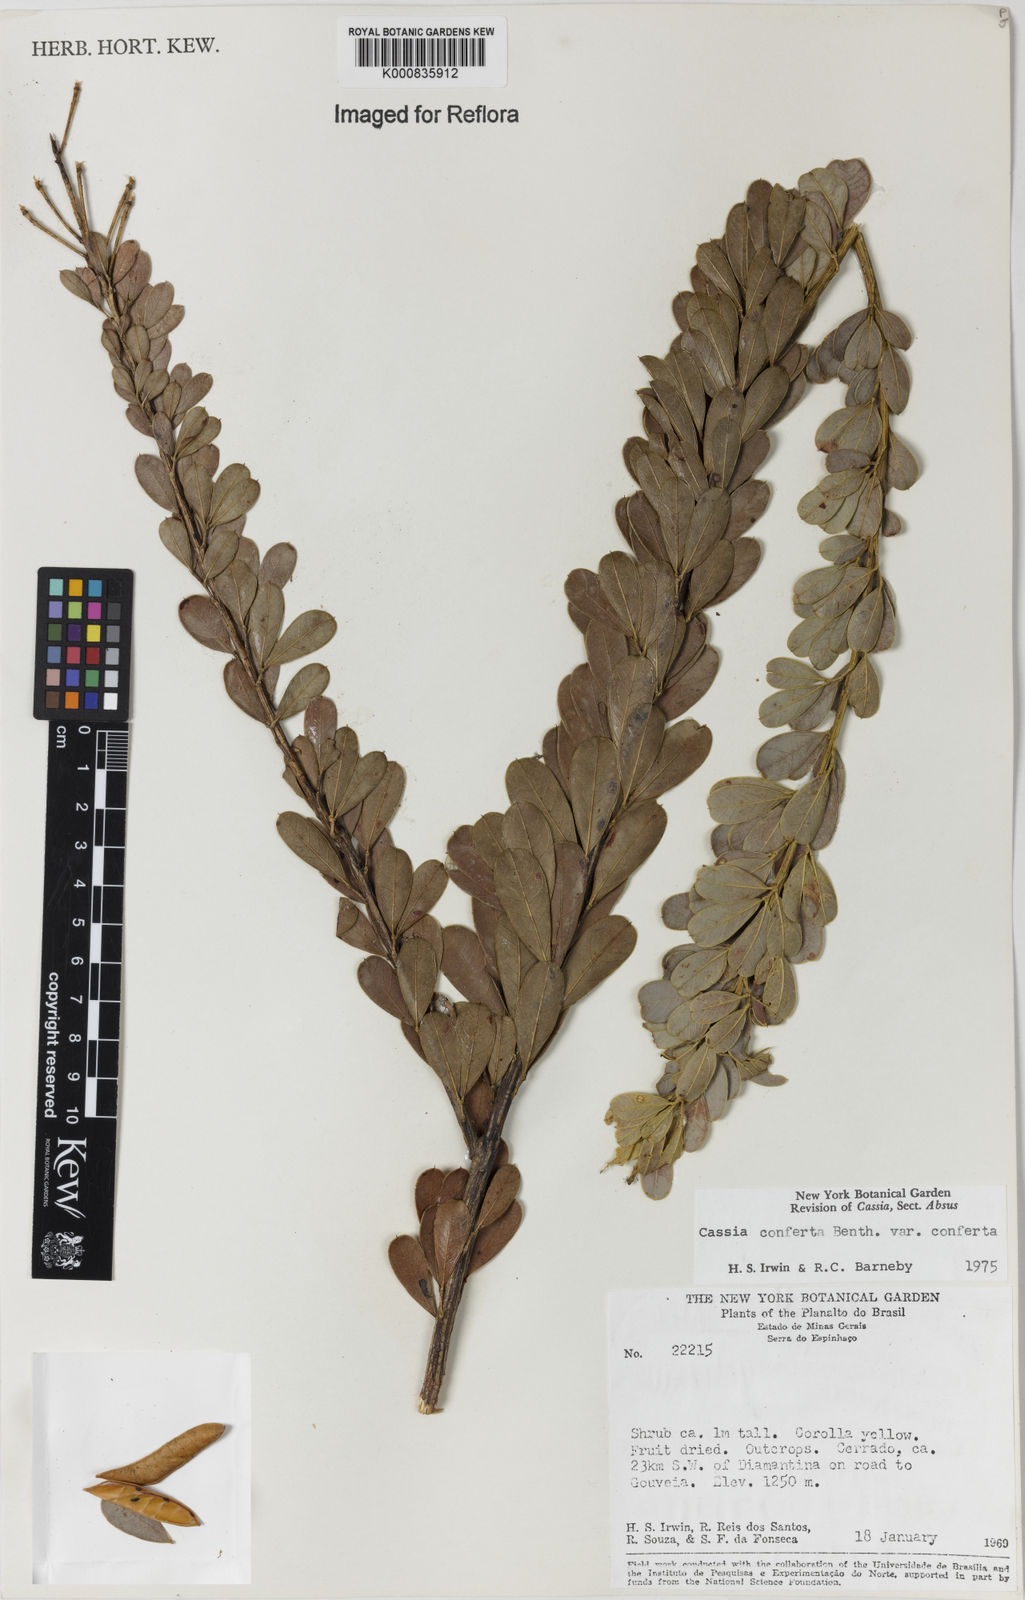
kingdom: Plantae
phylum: Tracheophyta
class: Magnoliopsida
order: Fabales
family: Fabaceae
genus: Chamaecrista
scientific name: Chamaecrista conferta
